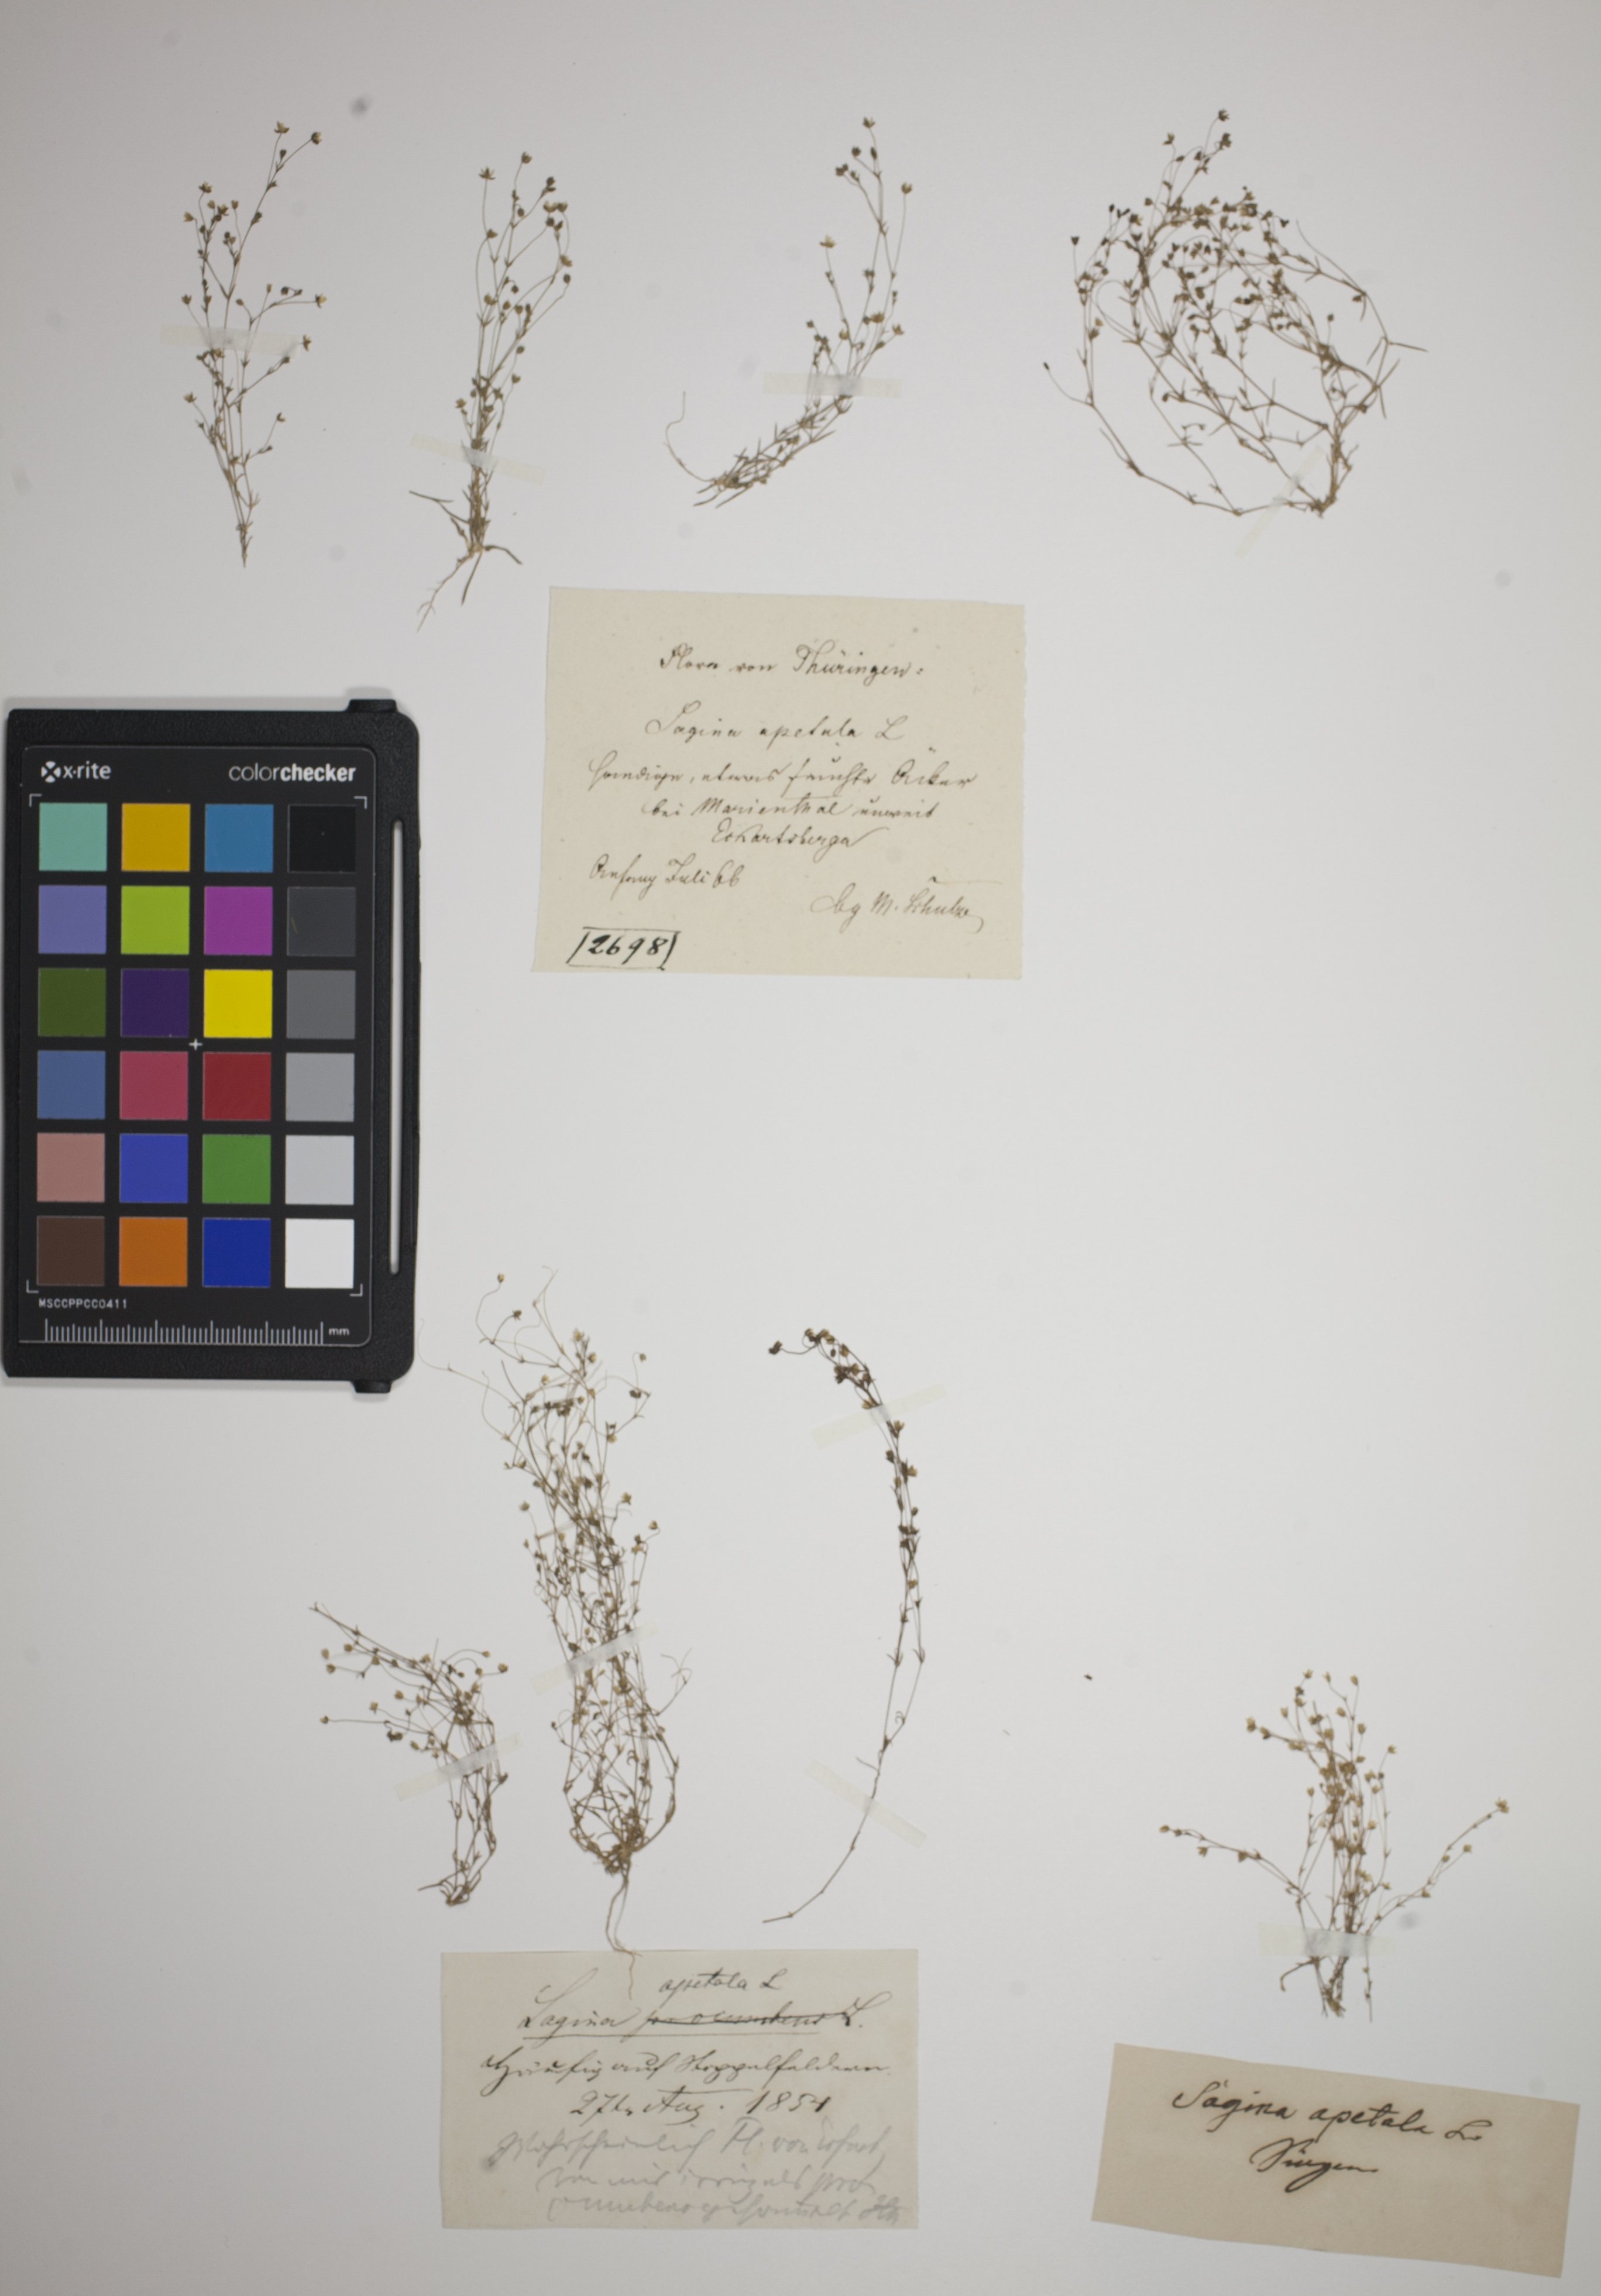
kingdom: Plantae
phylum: Tracheophyta
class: Magnoliopsida
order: Caryophyllales
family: Caryophyllaceae
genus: Sagina
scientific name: Sagina apetala
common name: Annual pearlwort
